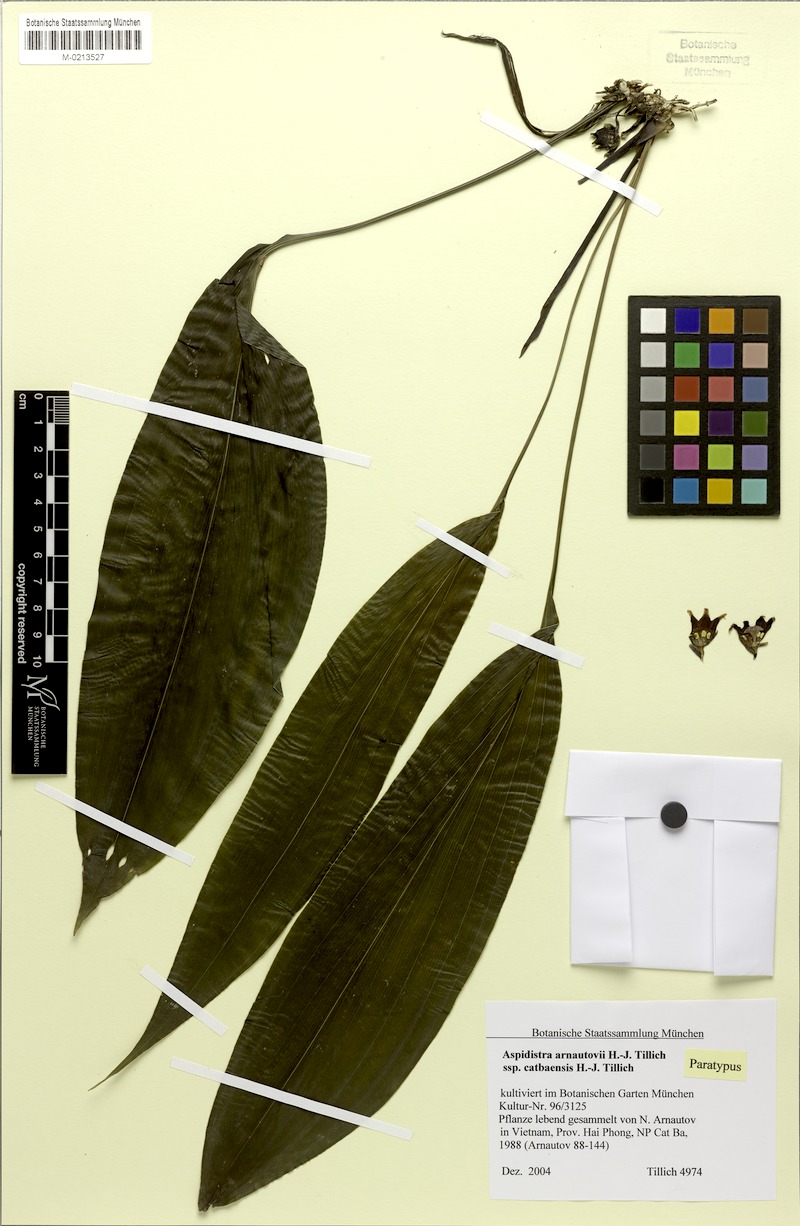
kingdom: Plantae
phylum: Tracheophyta
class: Liliopsida
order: Asparagales
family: Asparagaceae
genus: Aspidistra
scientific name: Aspidistra arnautovii
